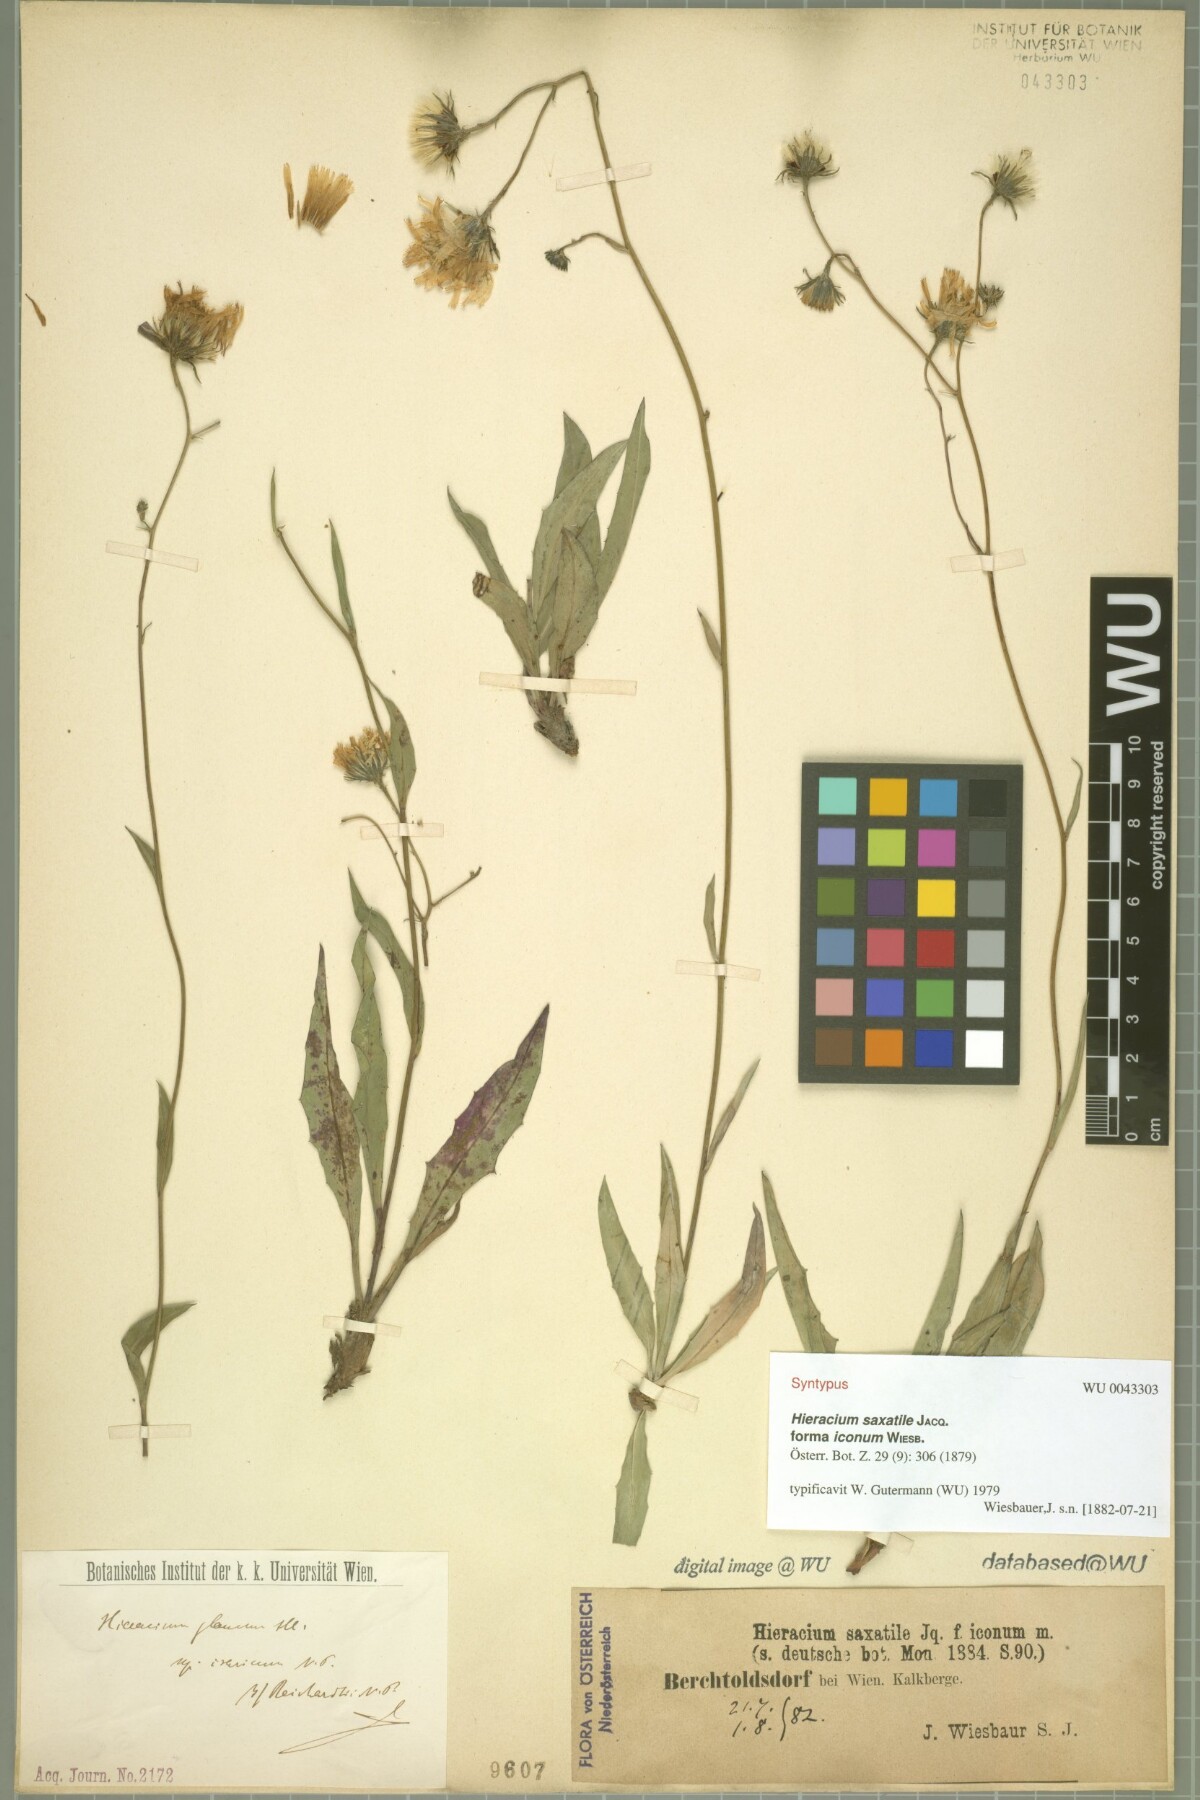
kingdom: Plantae
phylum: Tracheophyta
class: Magnoliopsida
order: Asterales
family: Asteraceae
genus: Hieracium
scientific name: Hieracium saxatile
